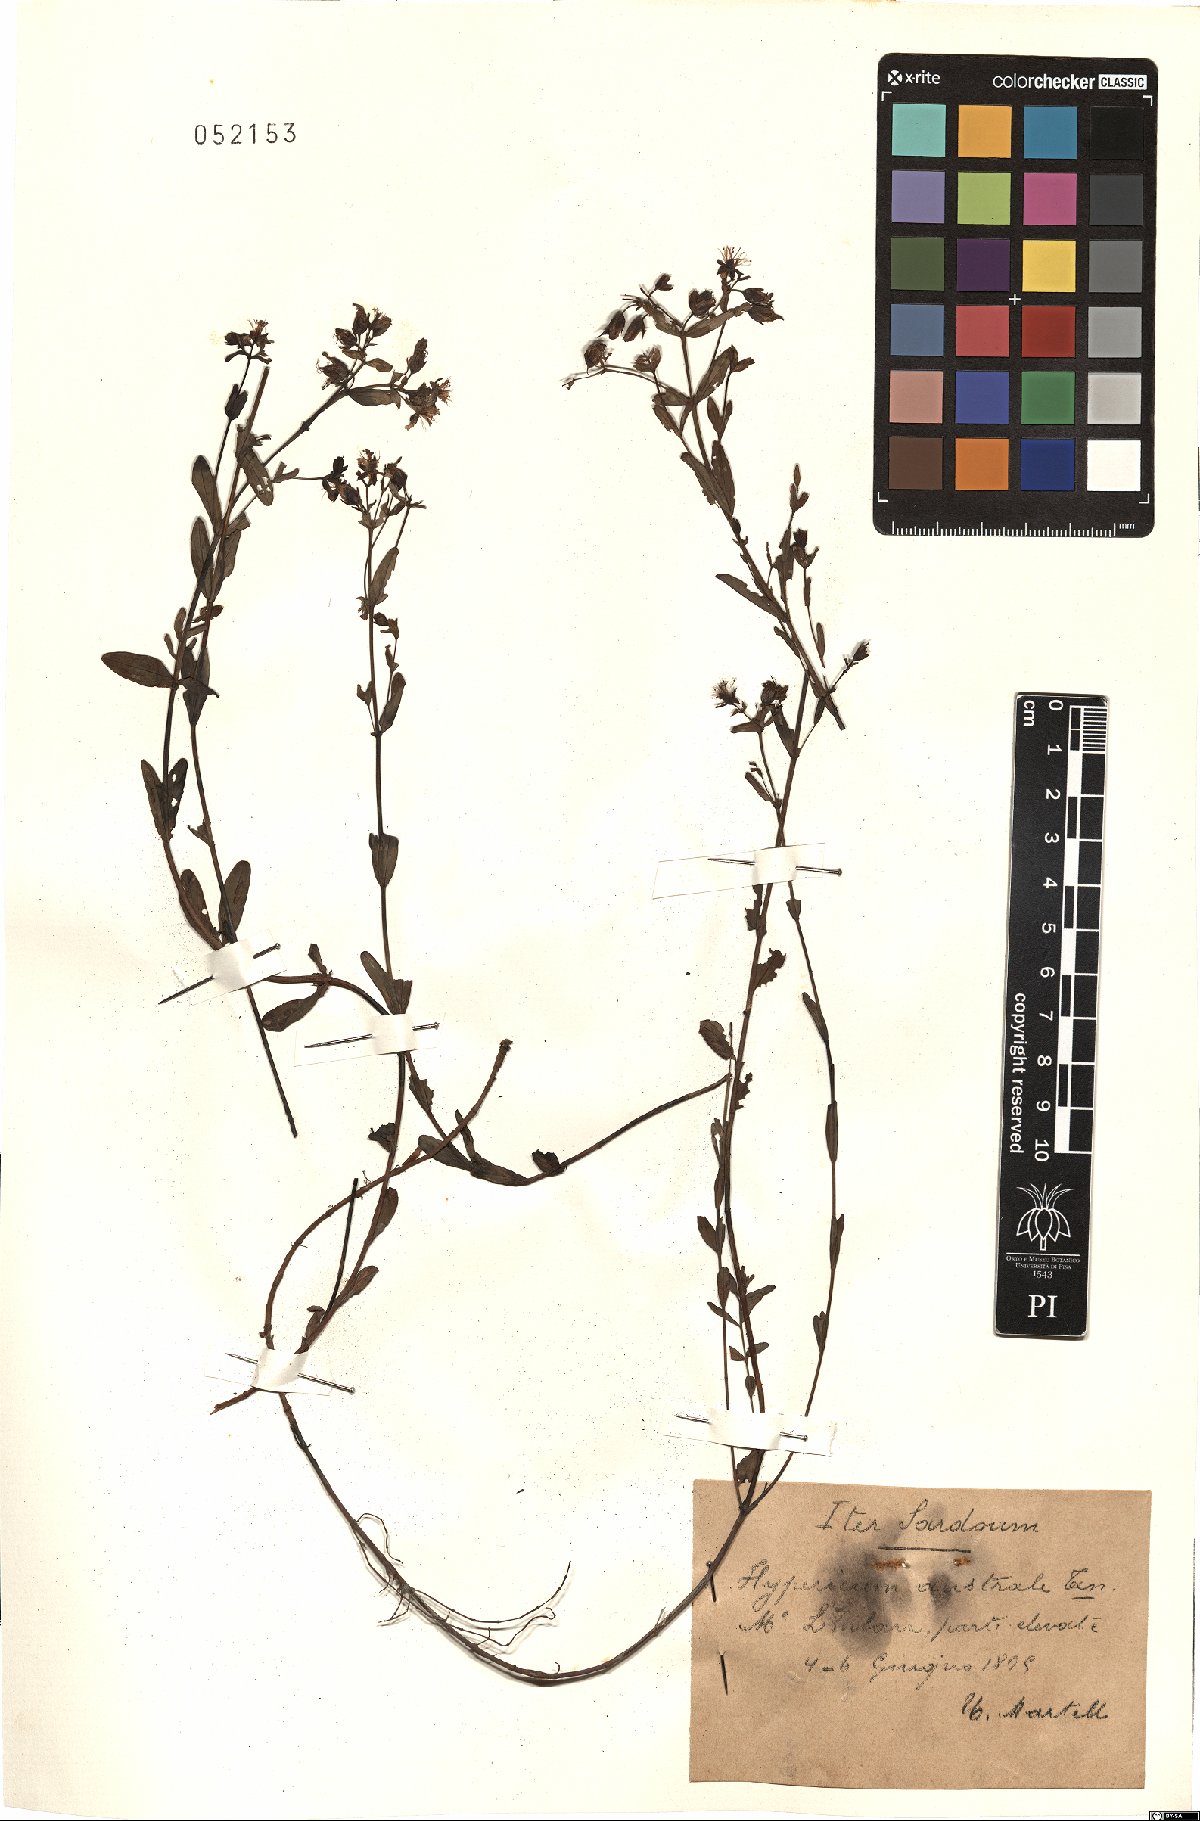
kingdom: Plantae
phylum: Tracheophyta
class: Magnoliopsida
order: Malpighiales
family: Hypericaceae
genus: Hypericum
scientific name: Hypericum australe
